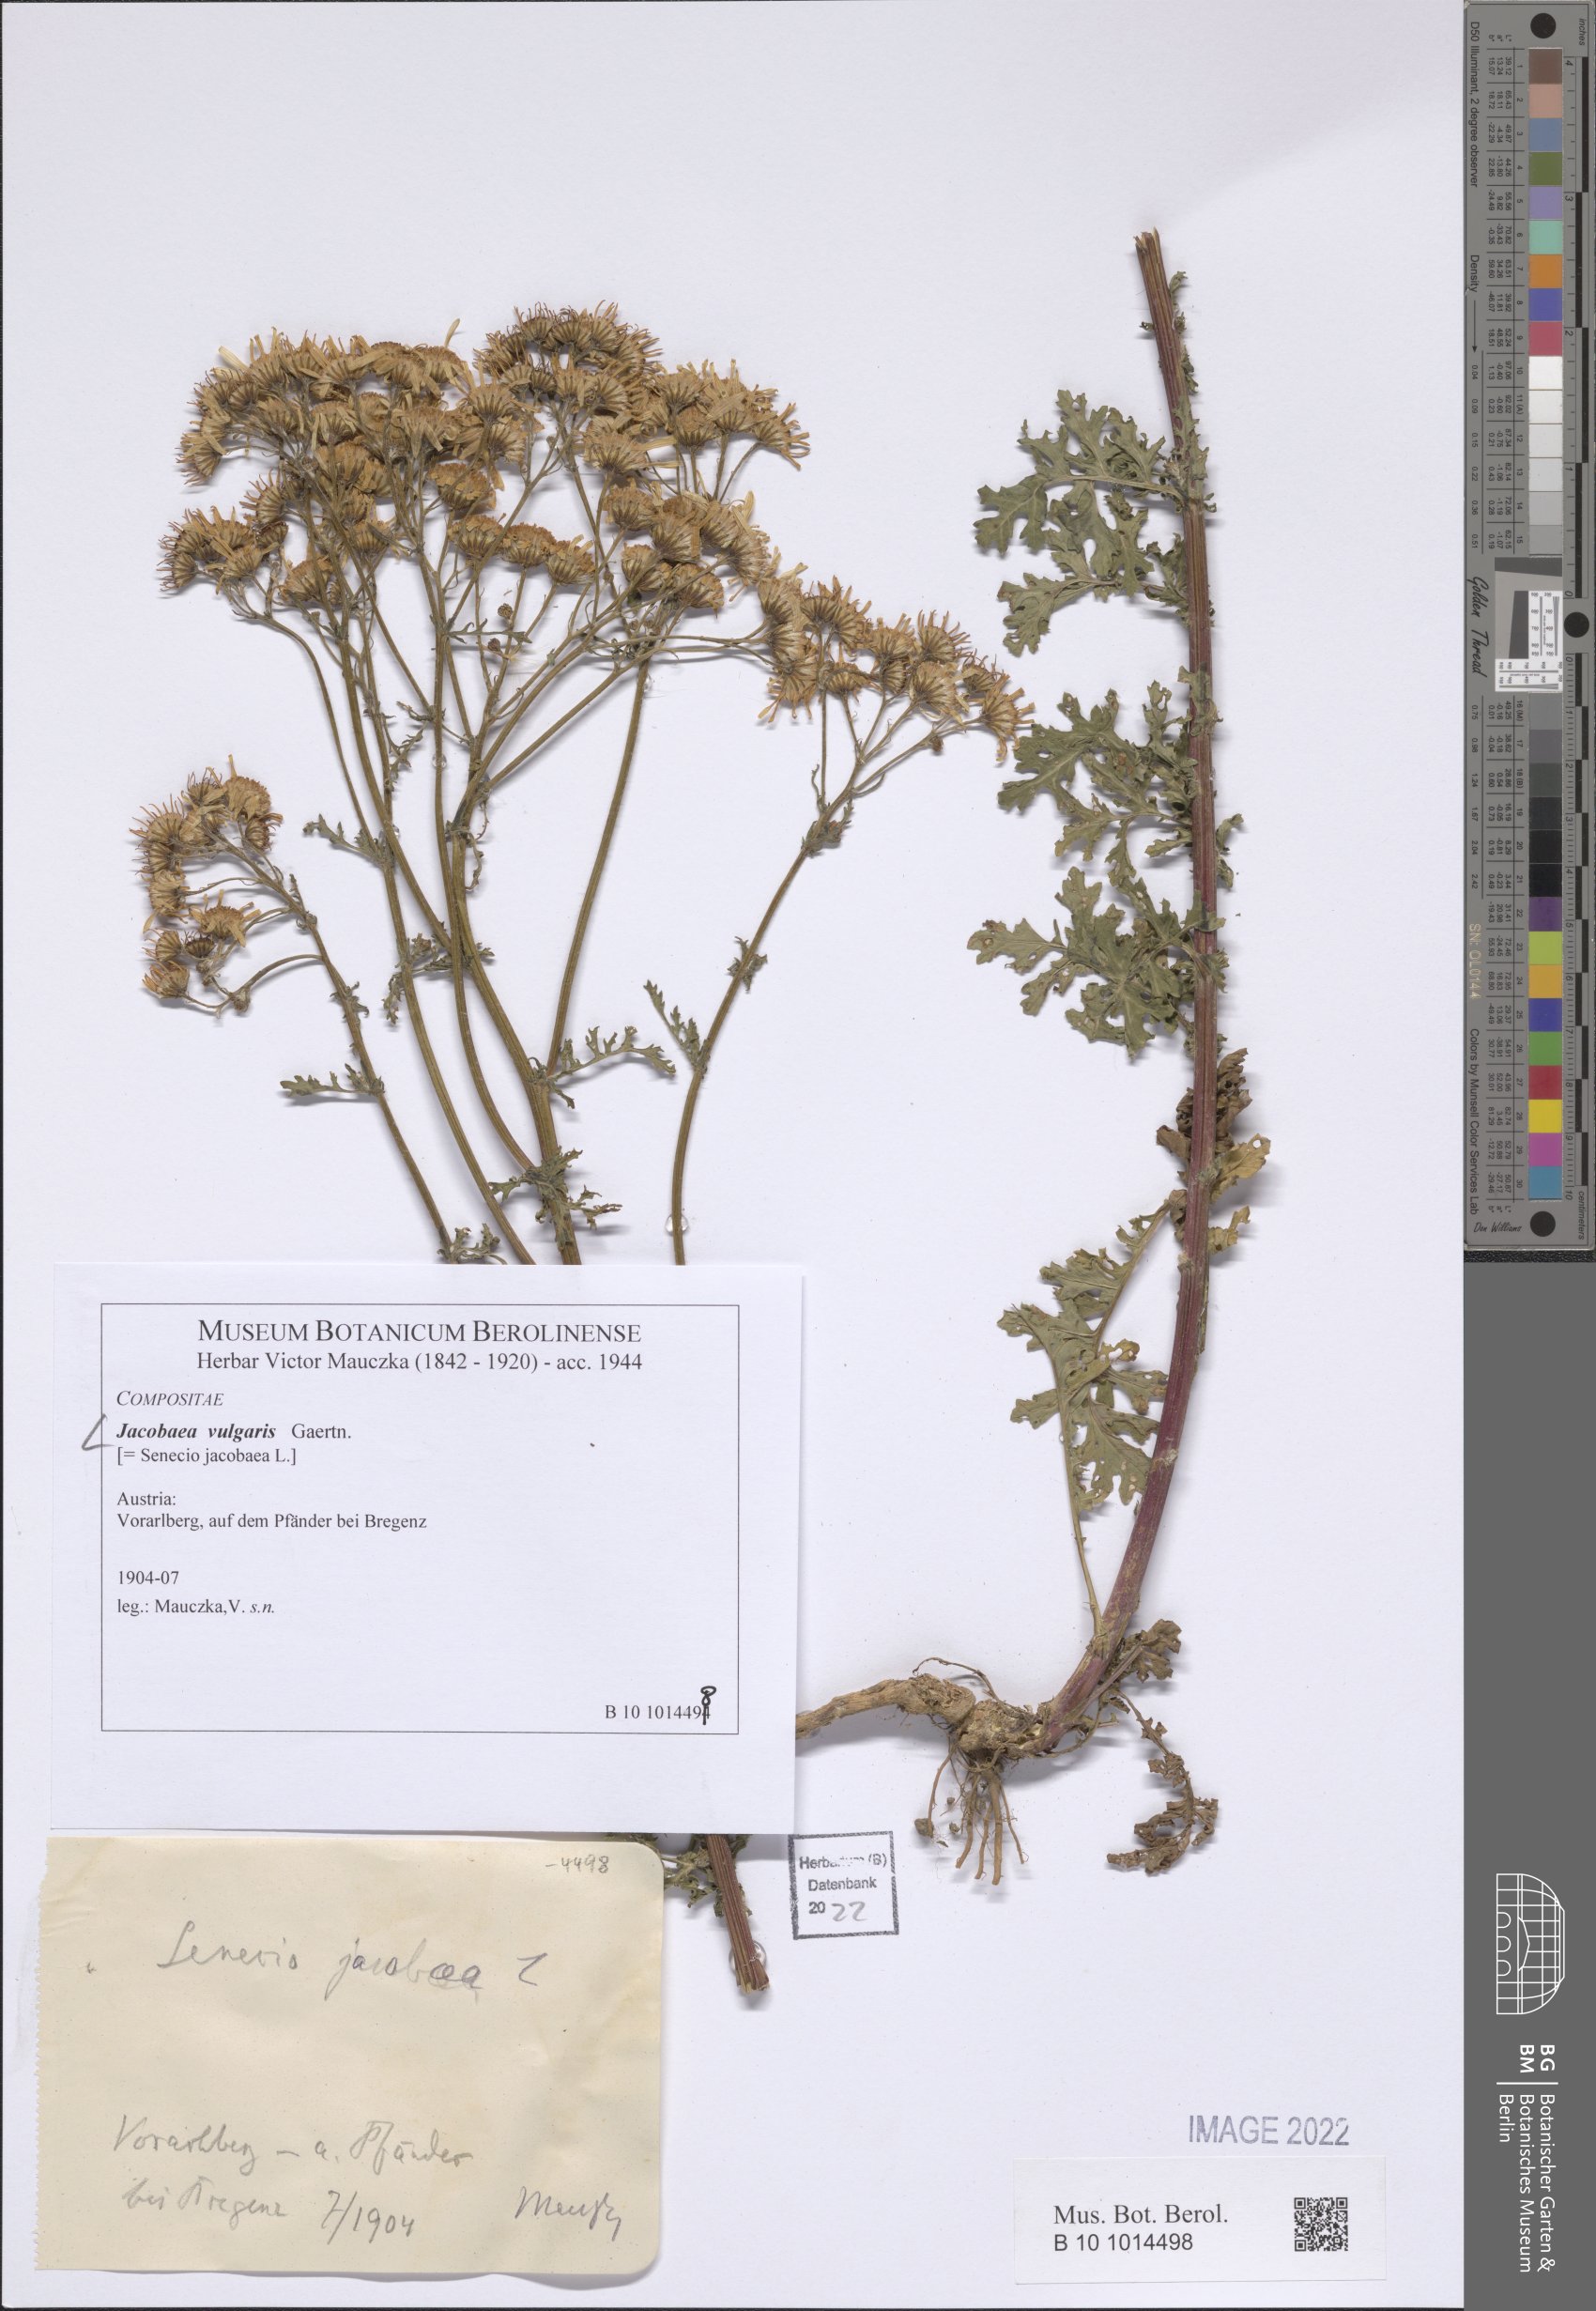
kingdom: Plantae
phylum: Tracheophyta
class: Magnoliopsida
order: Asterales
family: Asteraceae
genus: Jacobaea
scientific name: Jacobaea vulgaris
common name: Stinking willie
